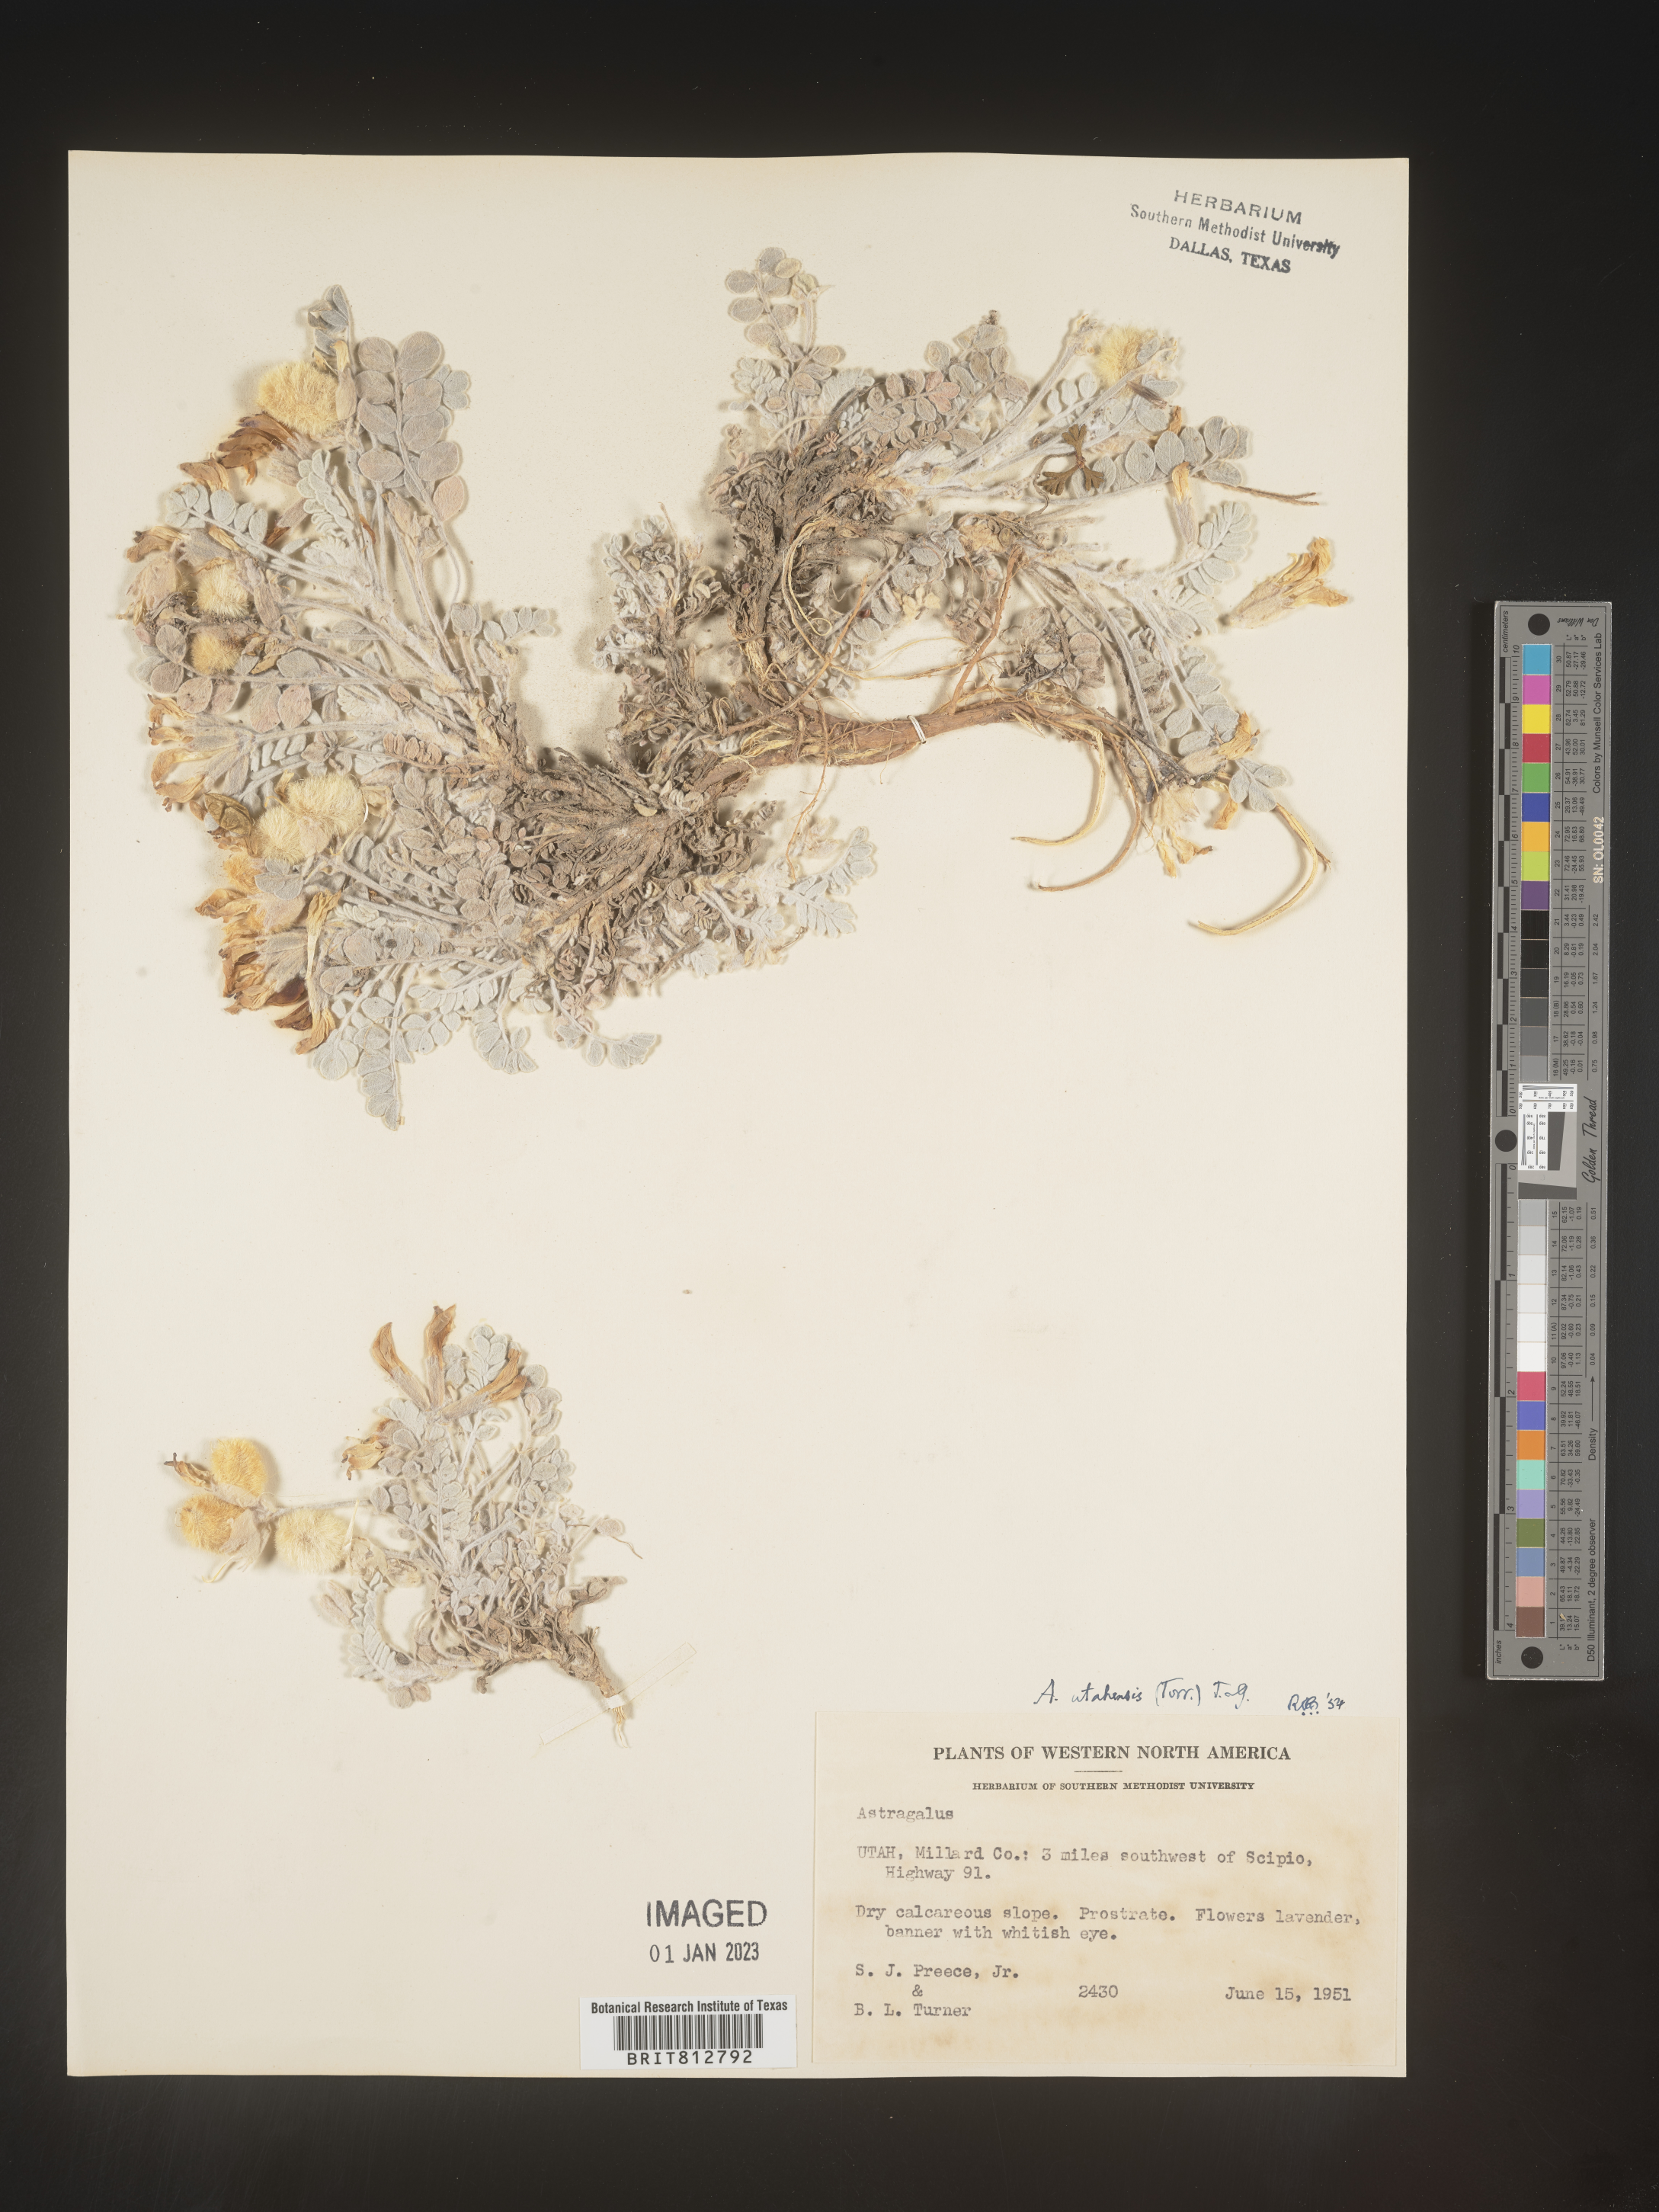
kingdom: Plantae
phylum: Tracheophyta
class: Magnoliopsida
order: Fabales
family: Fabaceae
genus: Astragalus
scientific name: Astragalus
